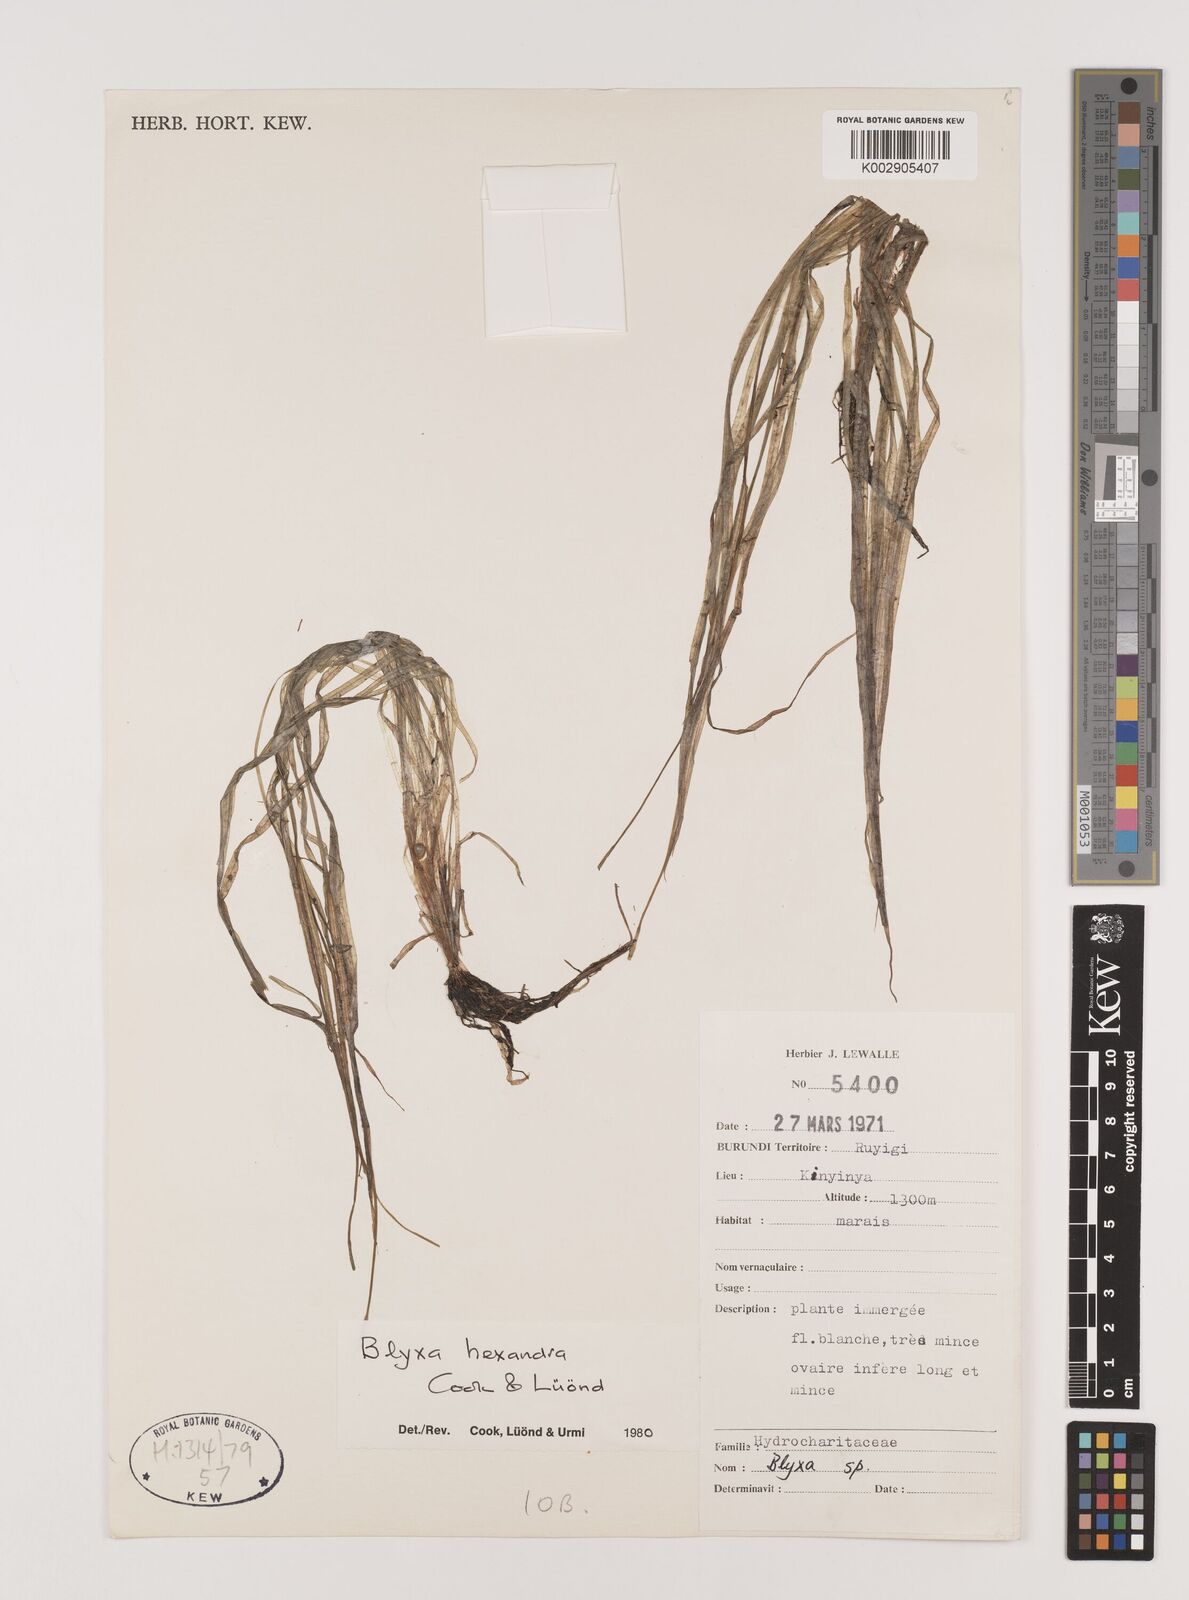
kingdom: Plantae
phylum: Tracheophyta
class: Liliopsida
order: Alismatales
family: Hydrocharitaceae
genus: Blyxa
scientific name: Blyxa hexandra
